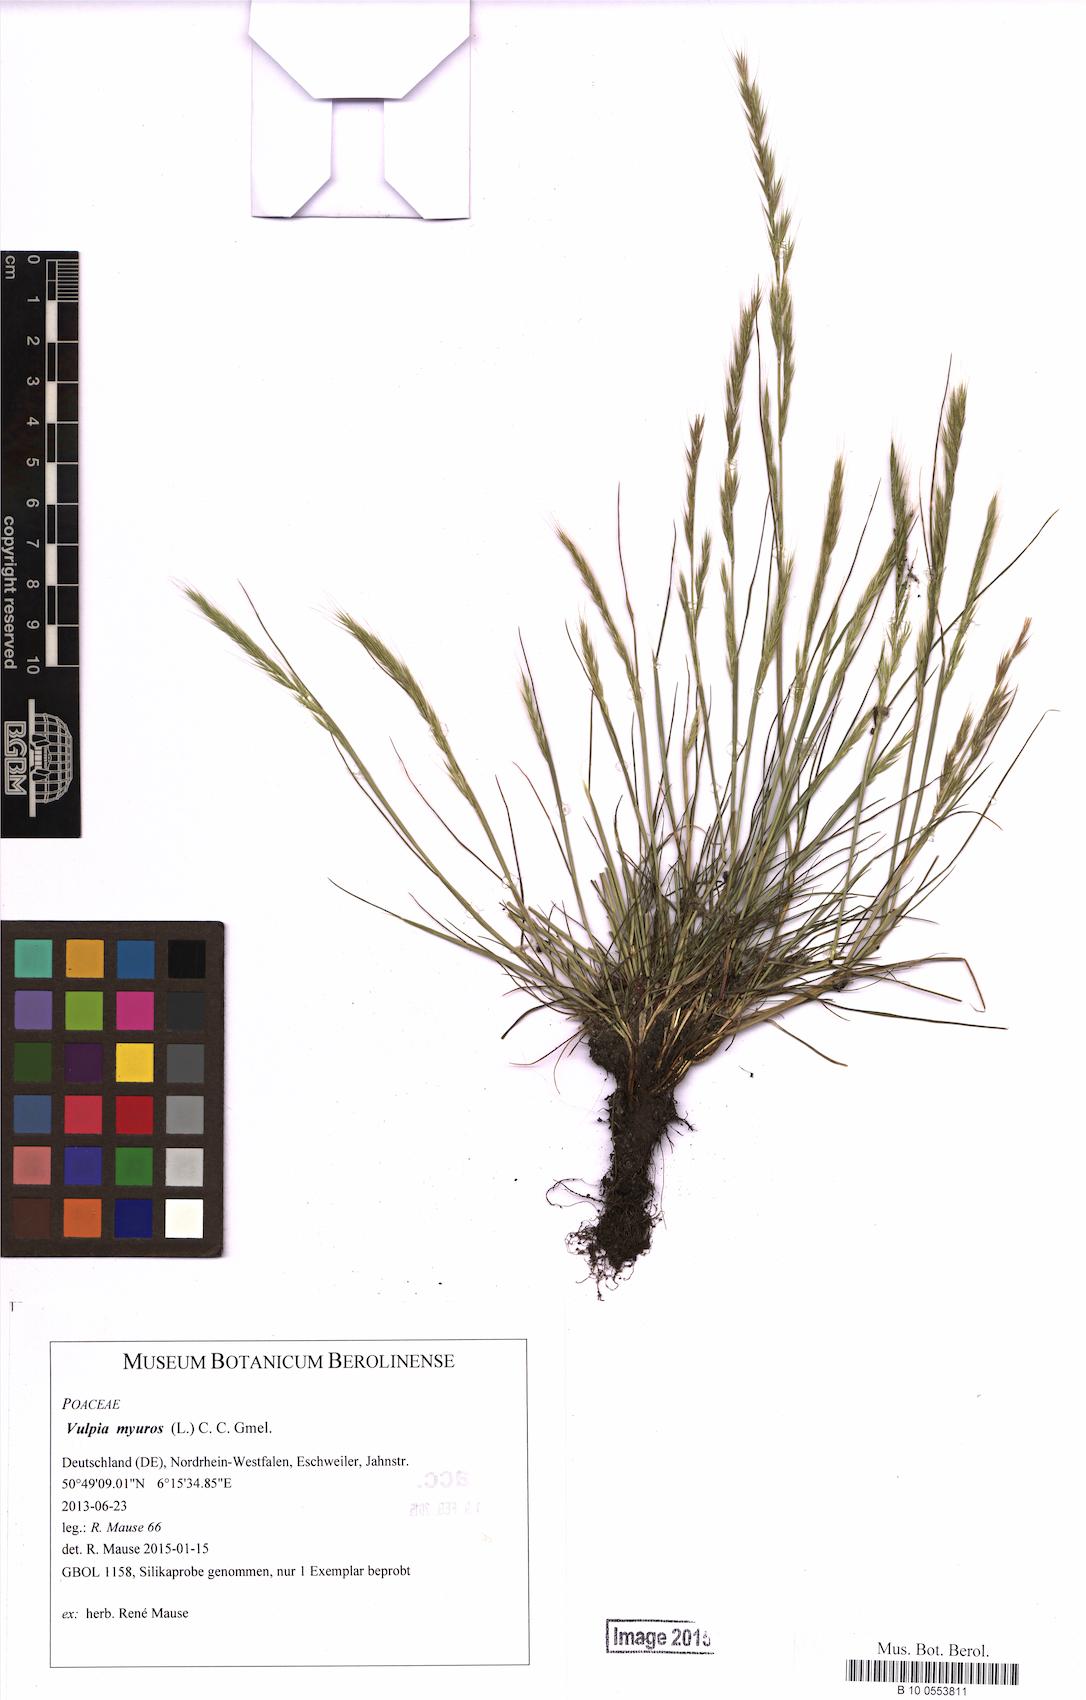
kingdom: Plantae
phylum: Tracheophyta
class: Liliopsida
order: Poales
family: Poaceae
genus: Festuca
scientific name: Festuca myuros
